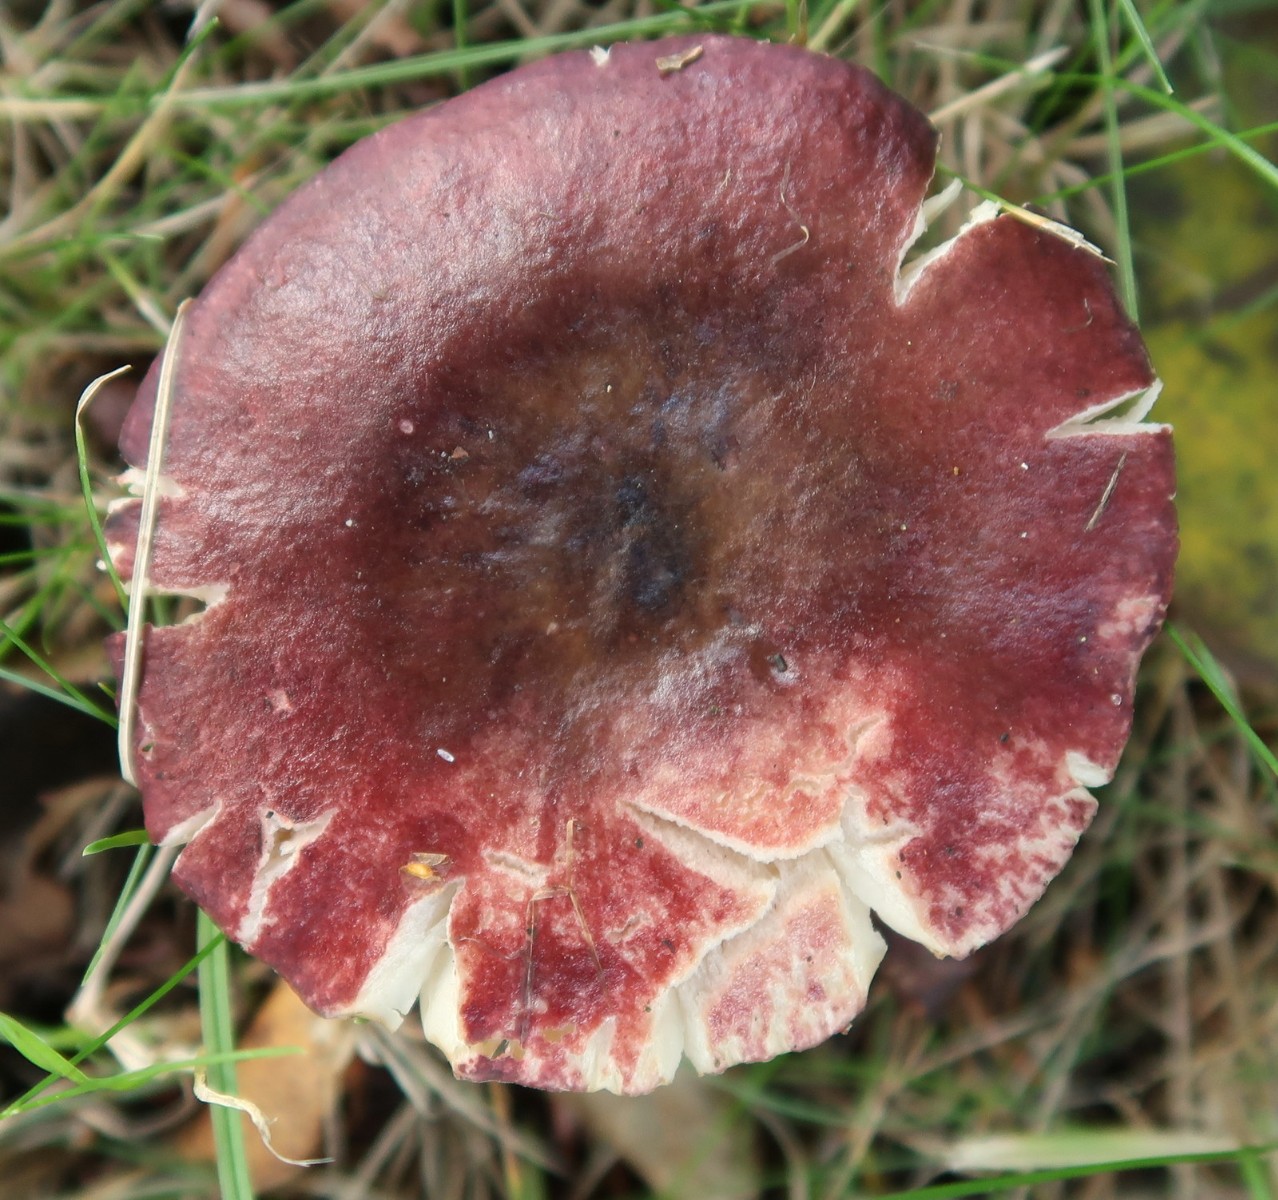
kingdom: Fungi
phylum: Basidiomycota
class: Agaricomycetes
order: Russulales
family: Russulaceae
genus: Russula
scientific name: Russula queletii
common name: Quélets skørhat
